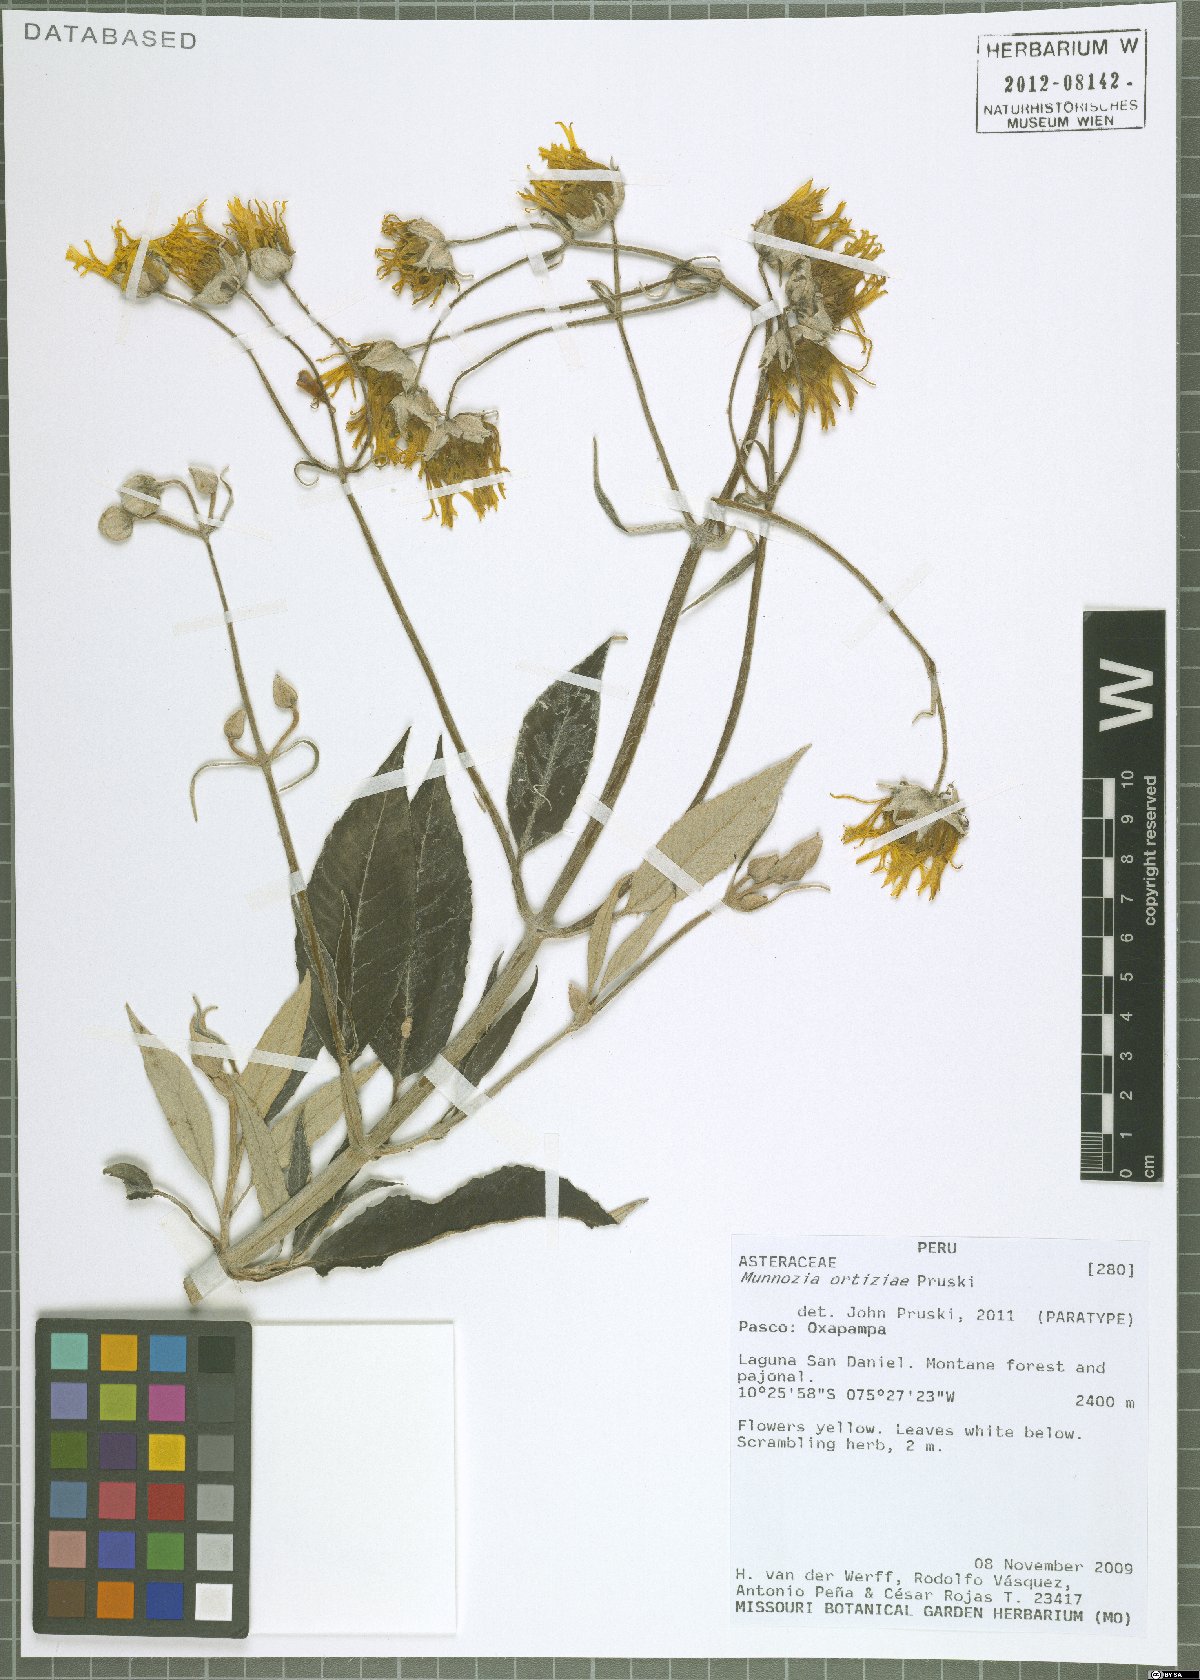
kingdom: Plantae
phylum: Tracheophyta
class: Magnoliopsida
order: Asterales
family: Asteraceae
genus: Munnozia
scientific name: Munnozia ortiziae
